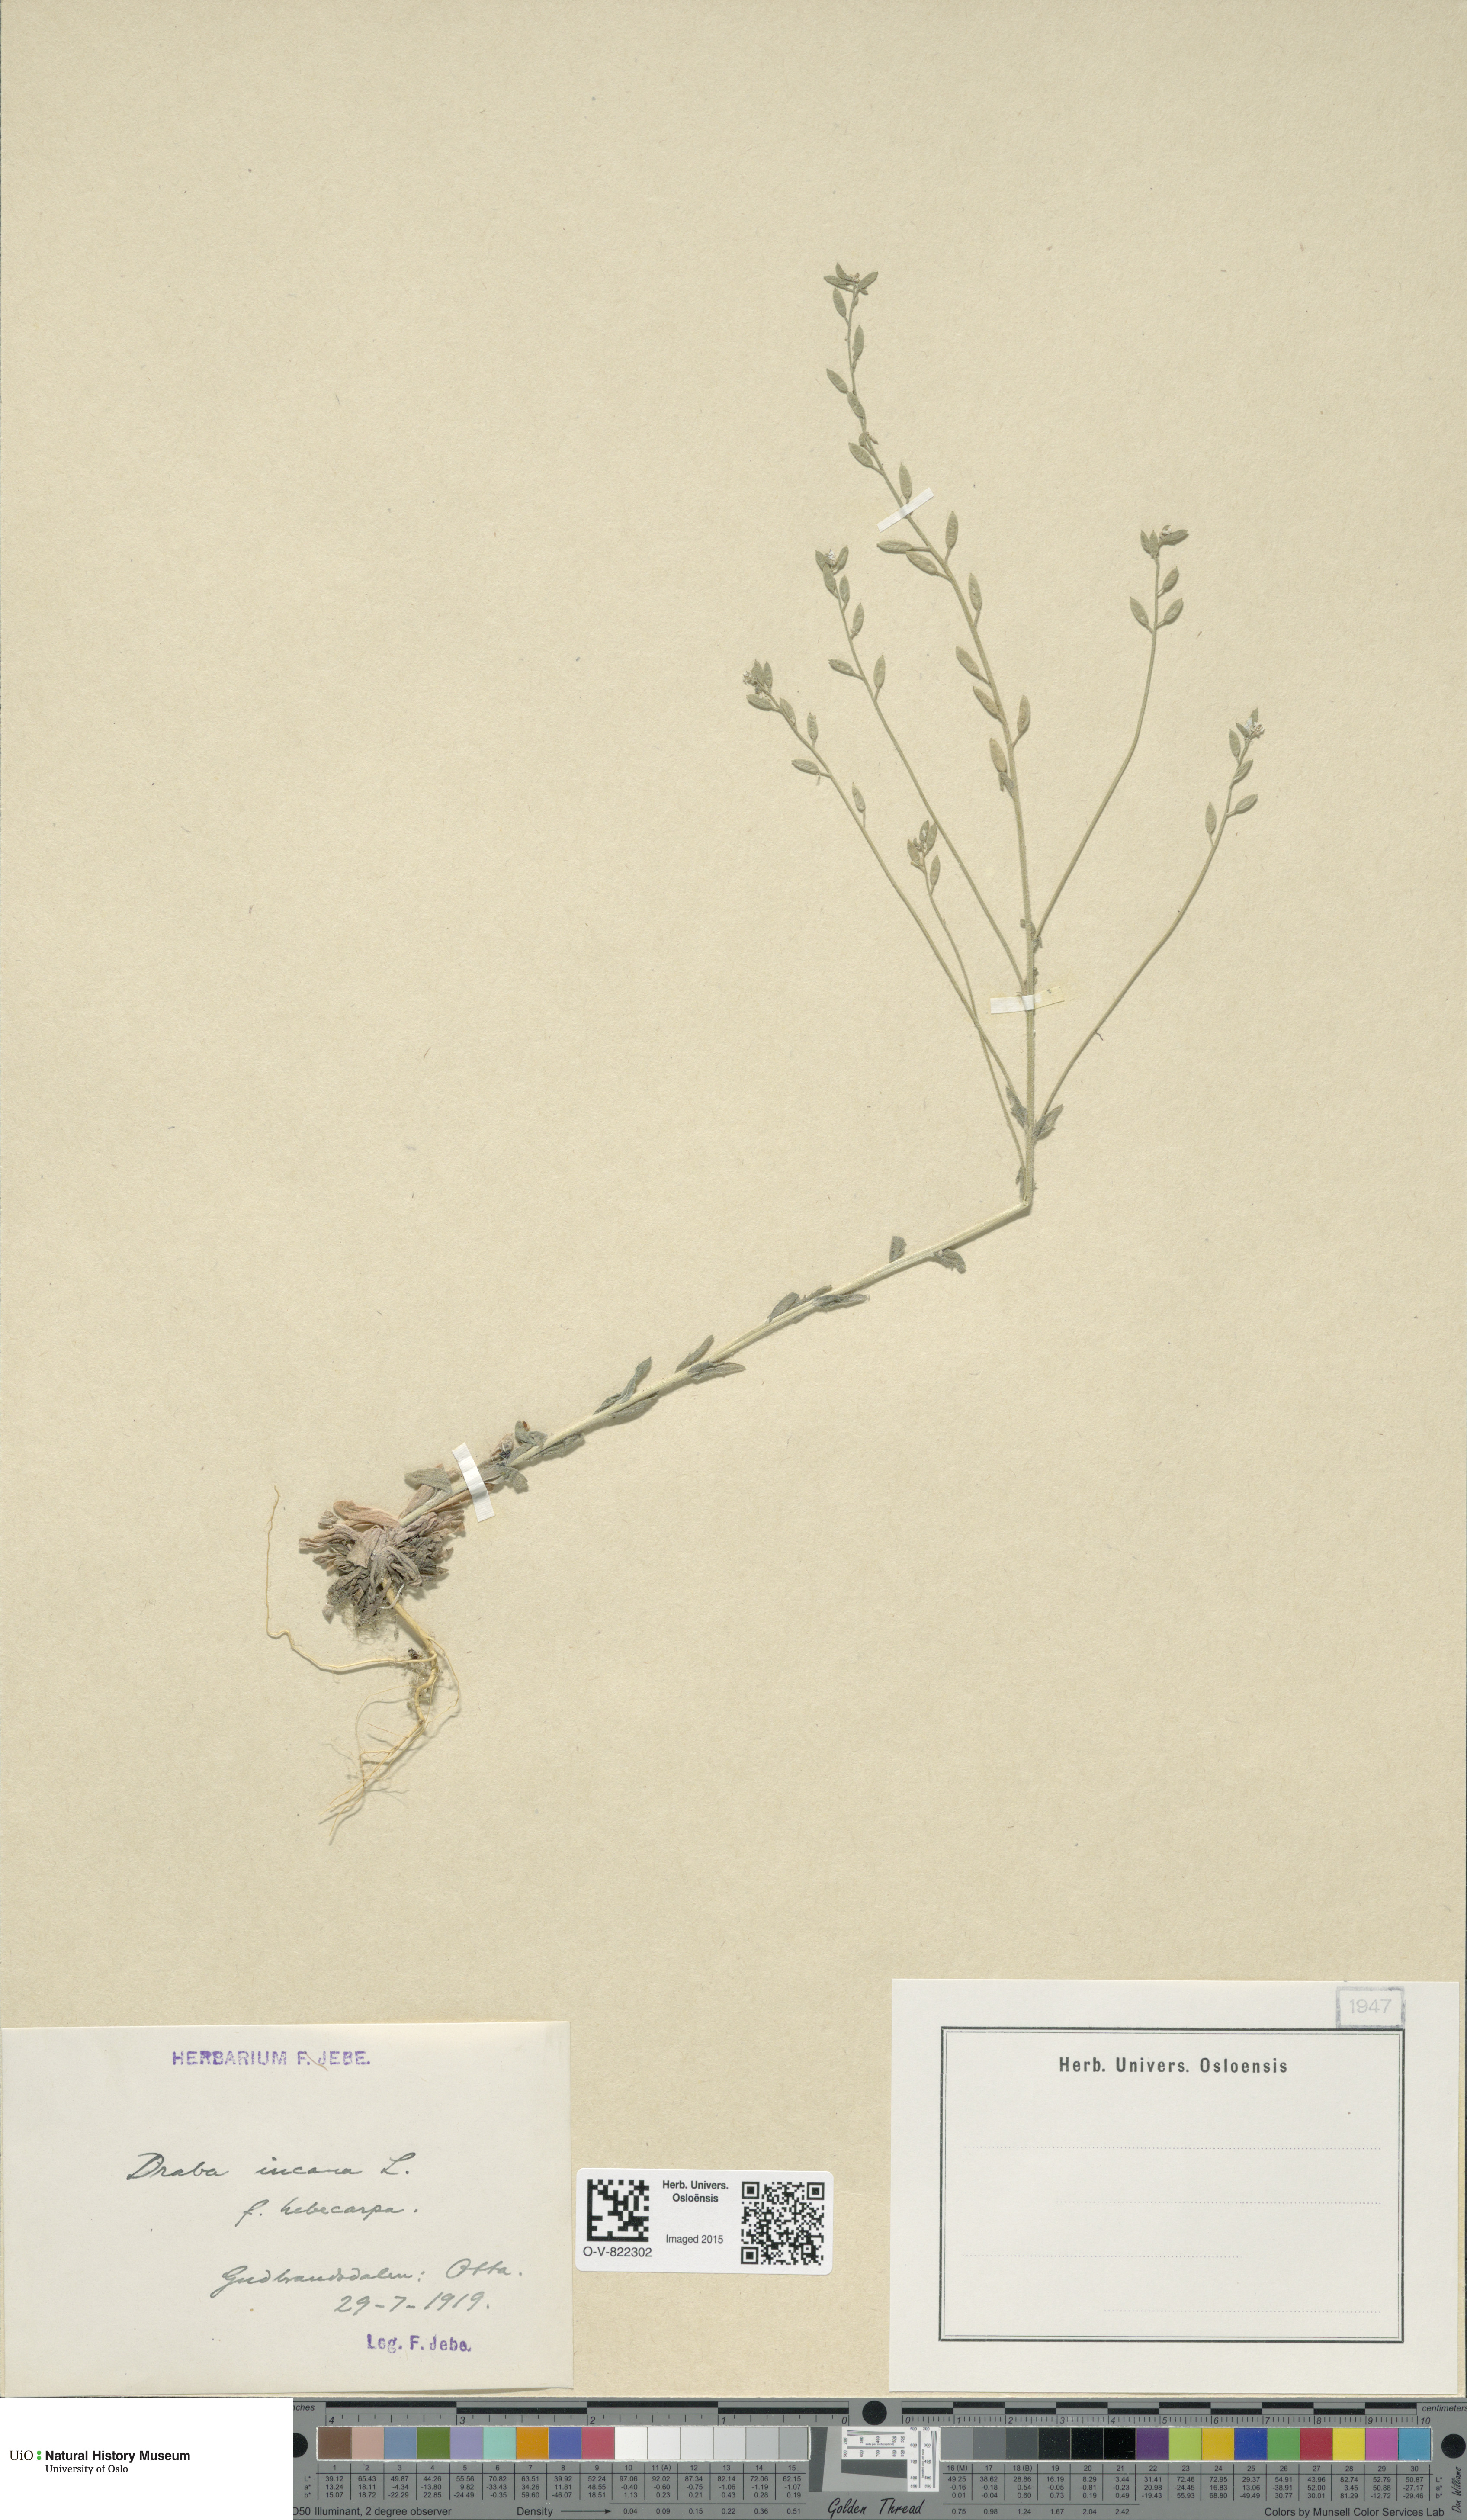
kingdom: Plantae
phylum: Tracheophyta
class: Magnoliopsida
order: Brassicales
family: Brassicaceae
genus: Draba
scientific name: Draba incana
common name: Hoary whitlow-grass
